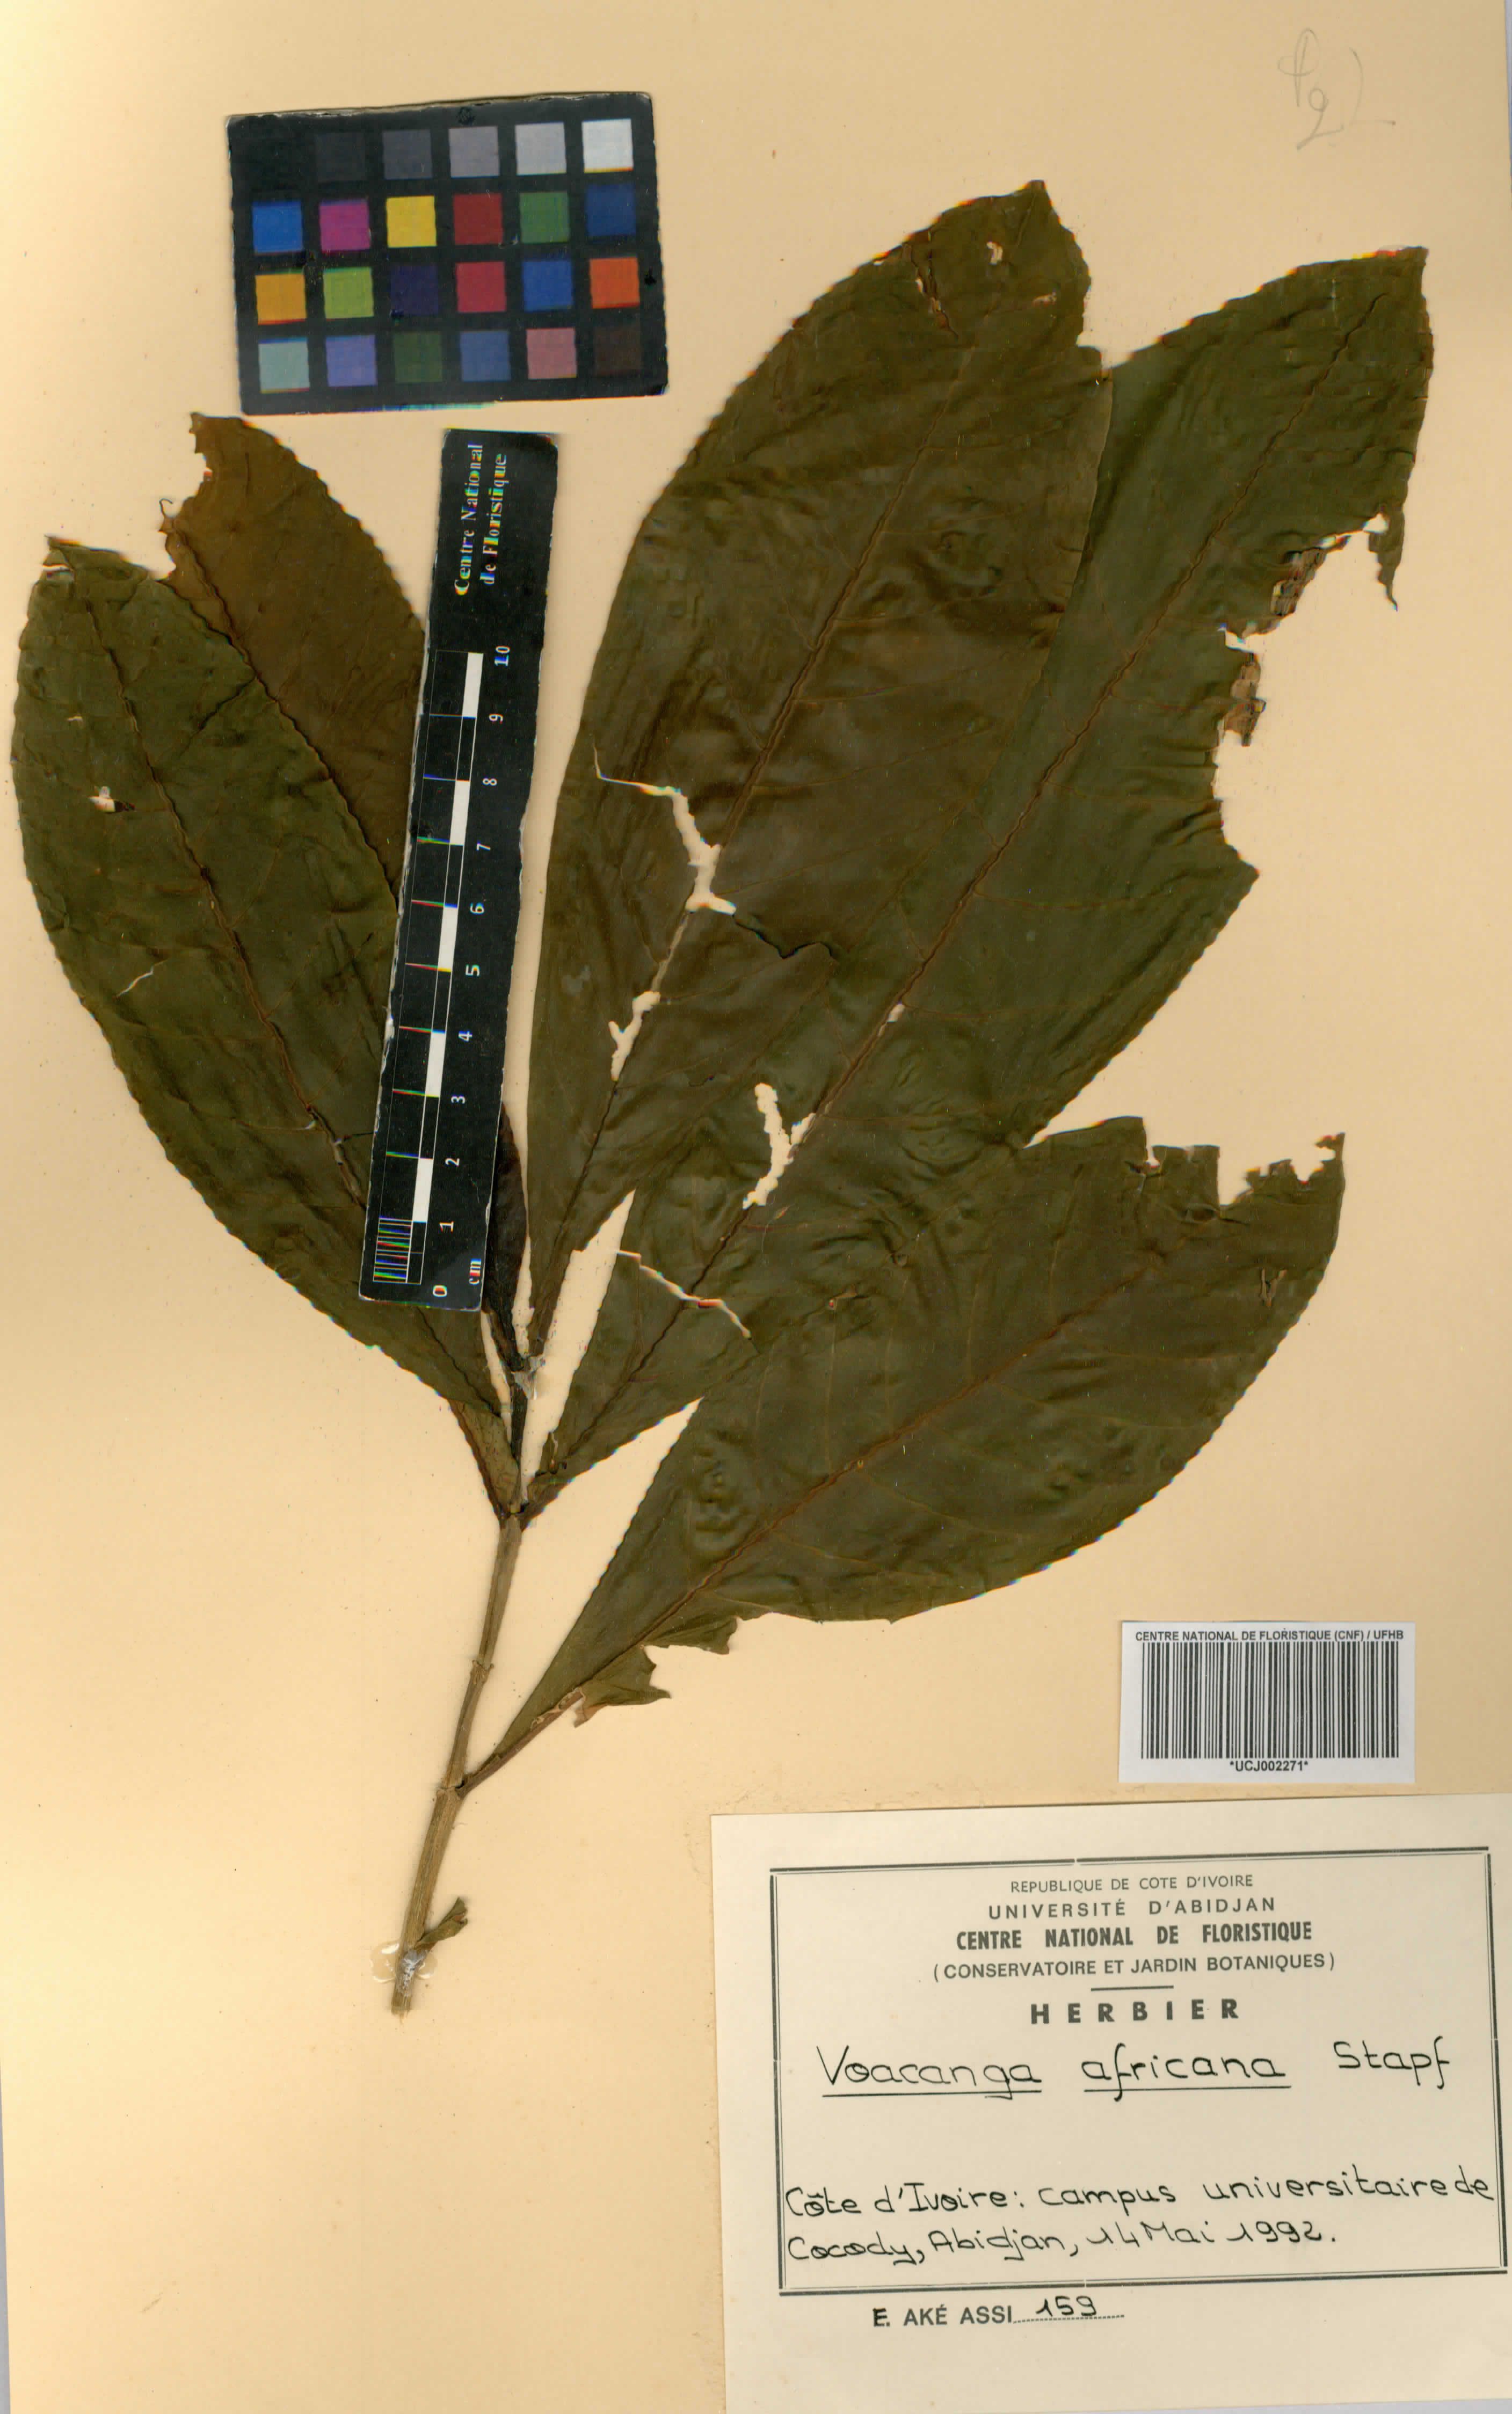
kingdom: Plantae
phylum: Tracheophyta
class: Magnoliopsida
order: Gentianales
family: Apocynaceae
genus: Voacanga
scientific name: Voacanga africana
